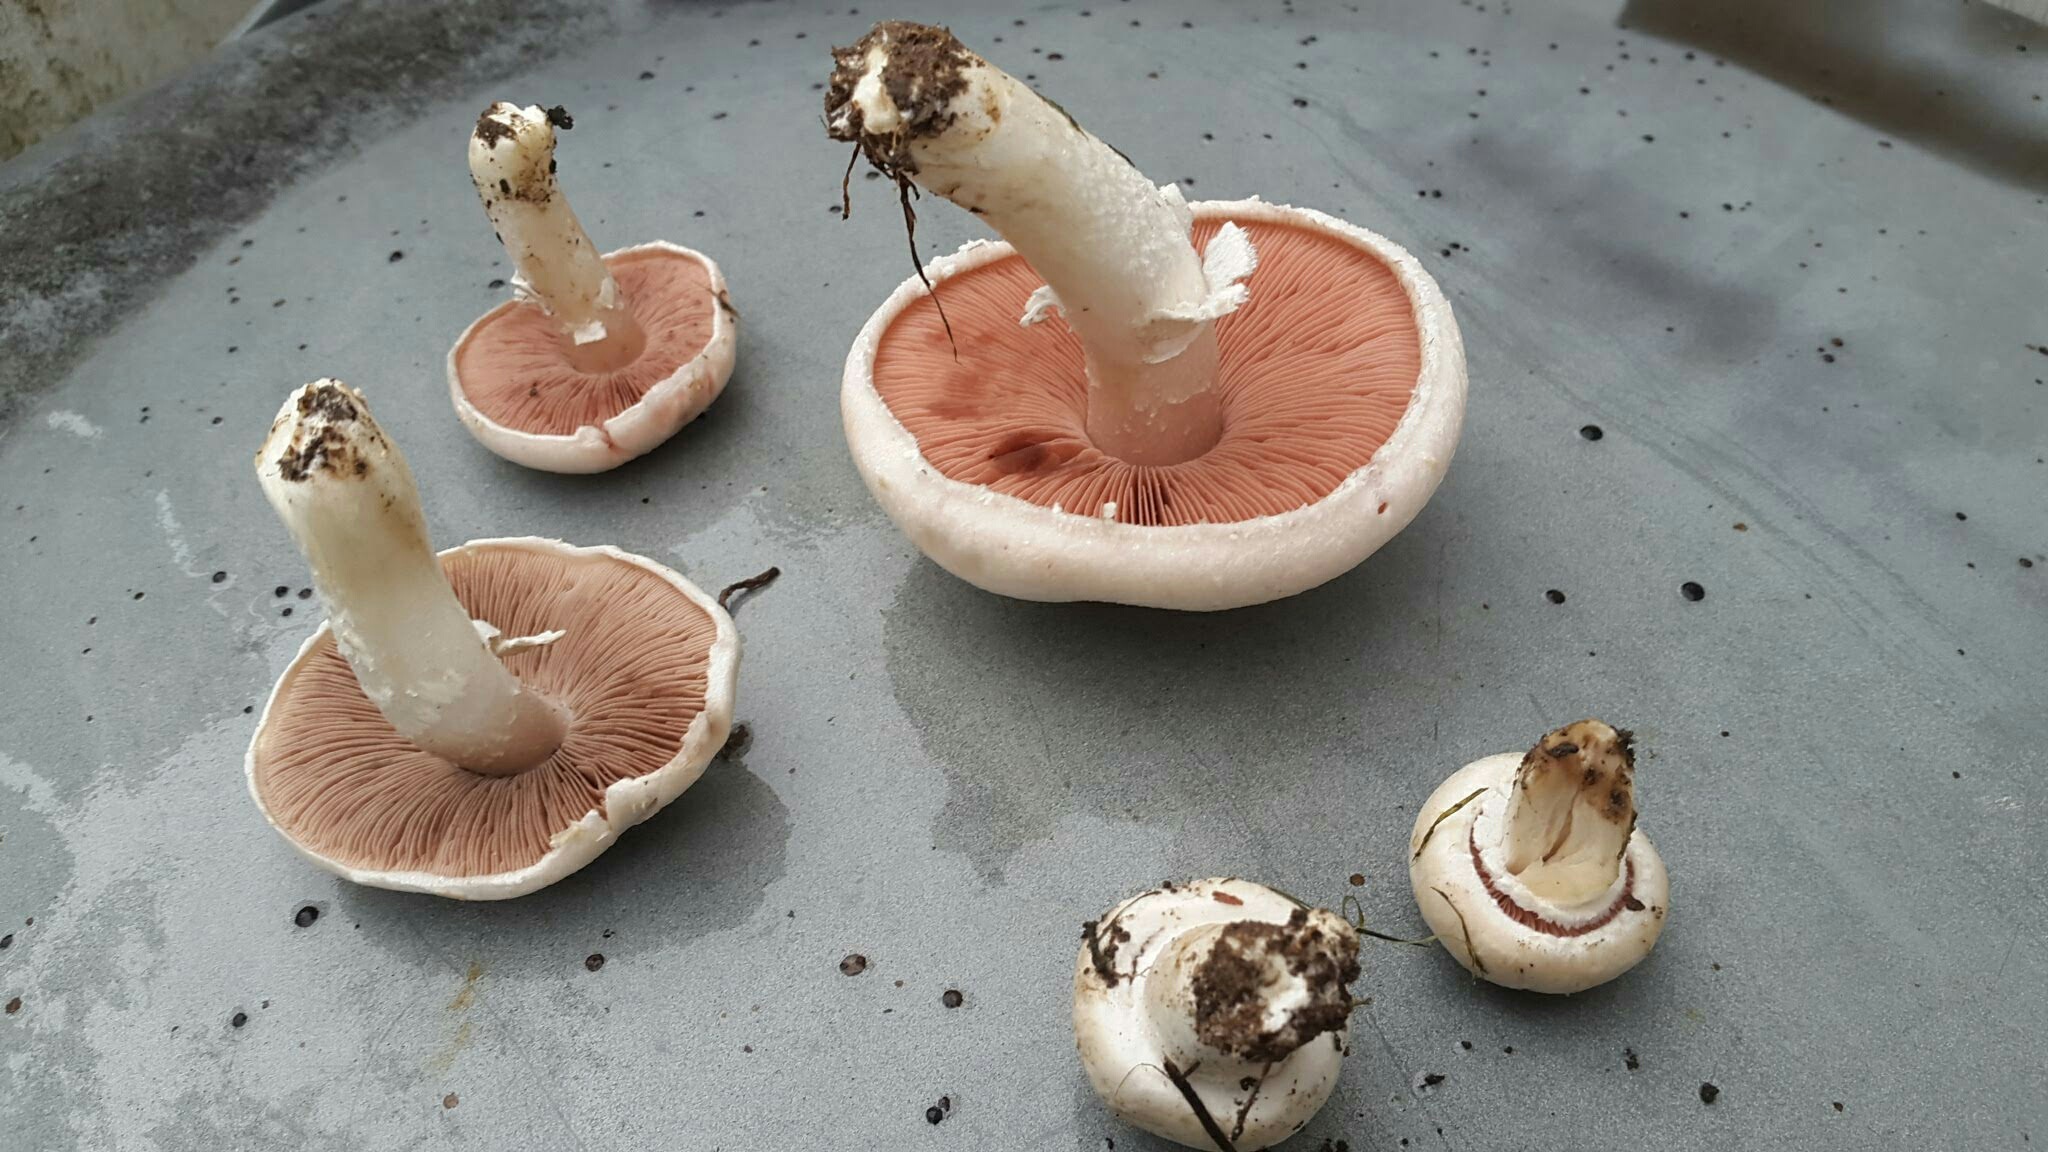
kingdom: Fungi
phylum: Basidiomycota
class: Agaricomycetes
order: Agaricales
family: Agaricaceae
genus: Agaricus
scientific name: Agaricus campestris
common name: mark-champignon
